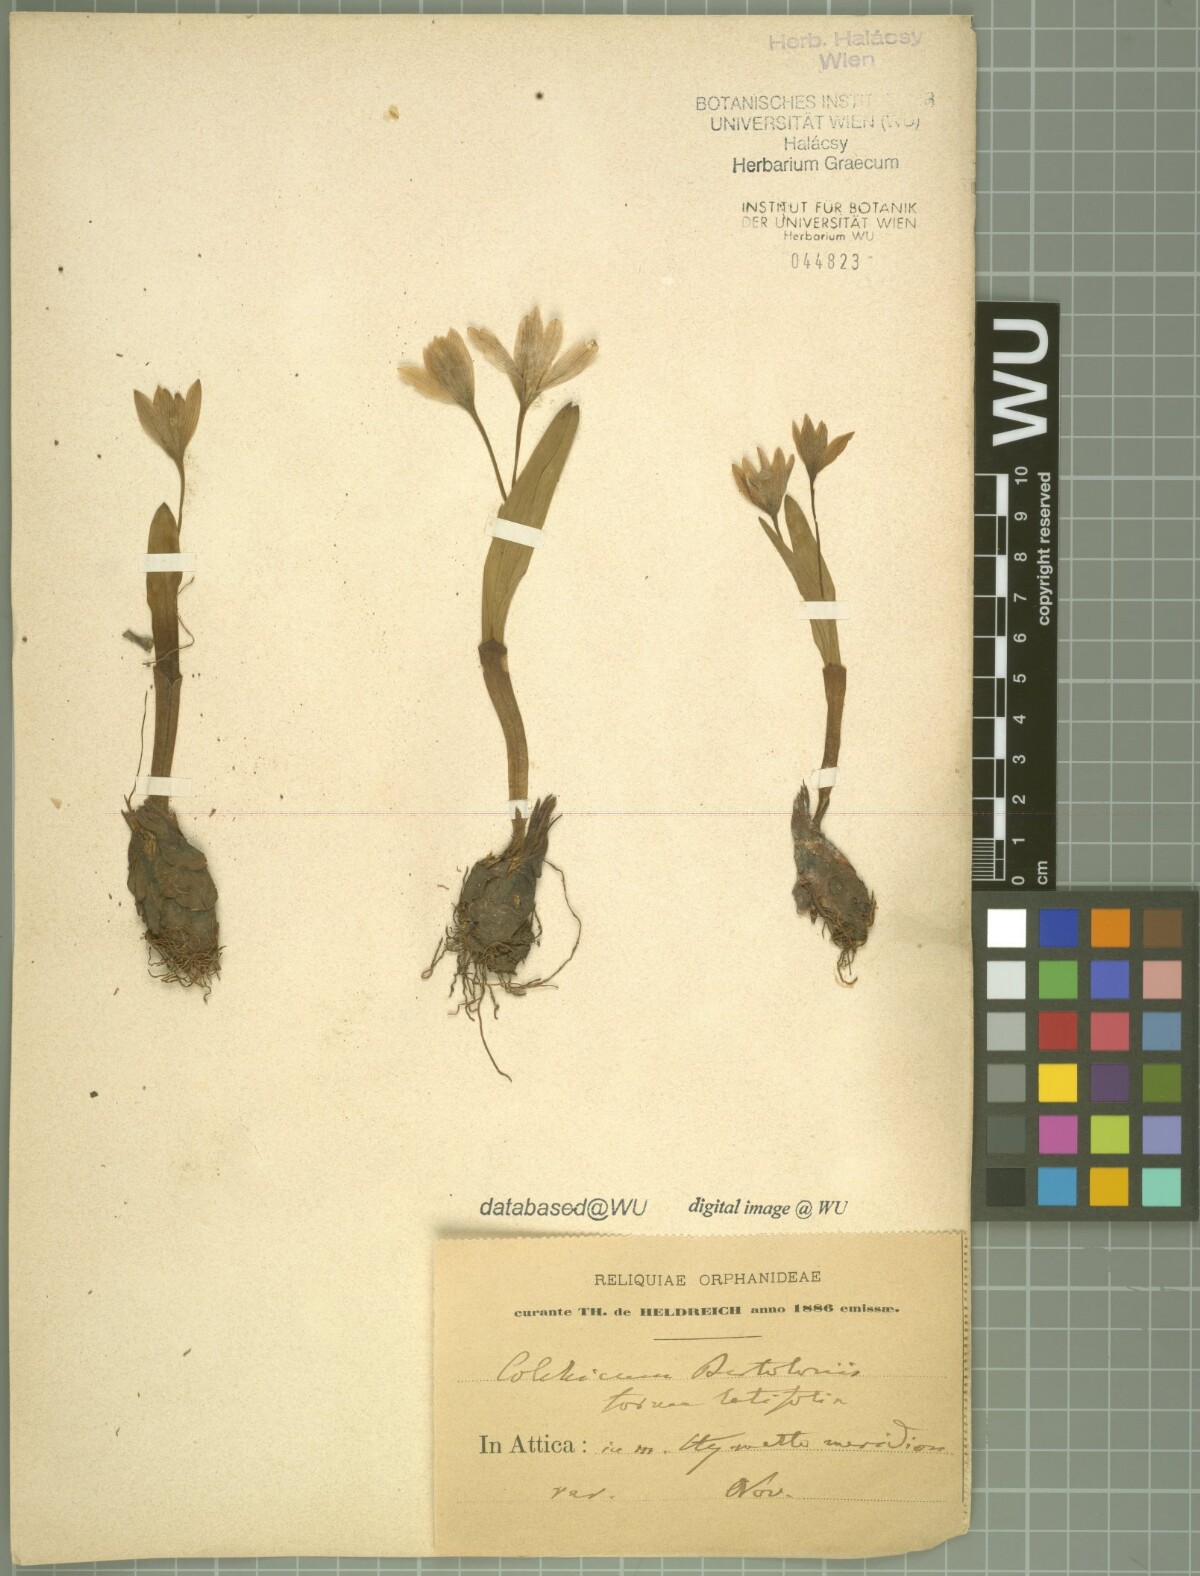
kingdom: Plantae
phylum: Tracheophyta
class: Liliopsida
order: Liliales
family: Colchicaceae
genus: Colchicum
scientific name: Colchicum cupanii
